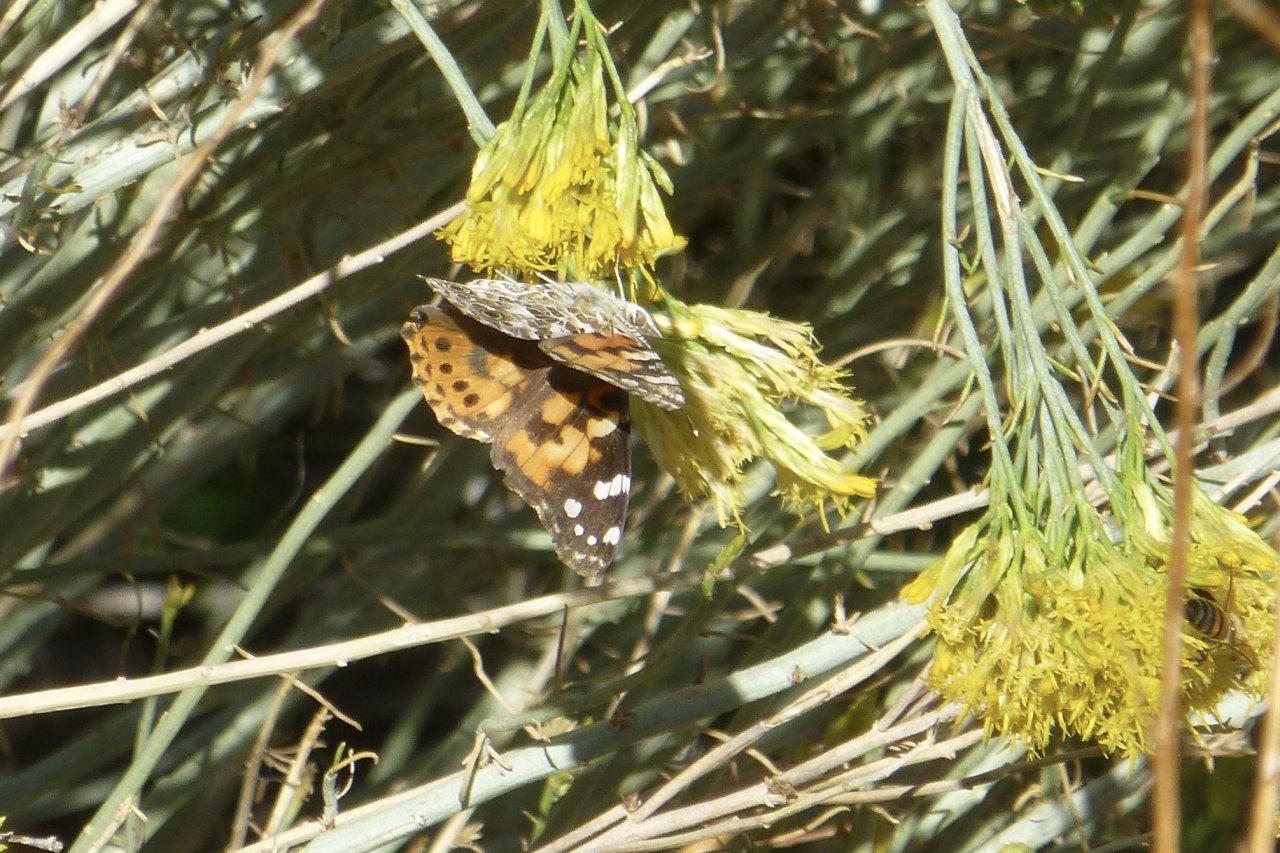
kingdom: Animalia
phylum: Arthropoda
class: Insecta
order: Lepidoptera
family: Nymphalidae
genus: Vanessa
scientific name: Vanessa cardui
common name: Painted Lady
